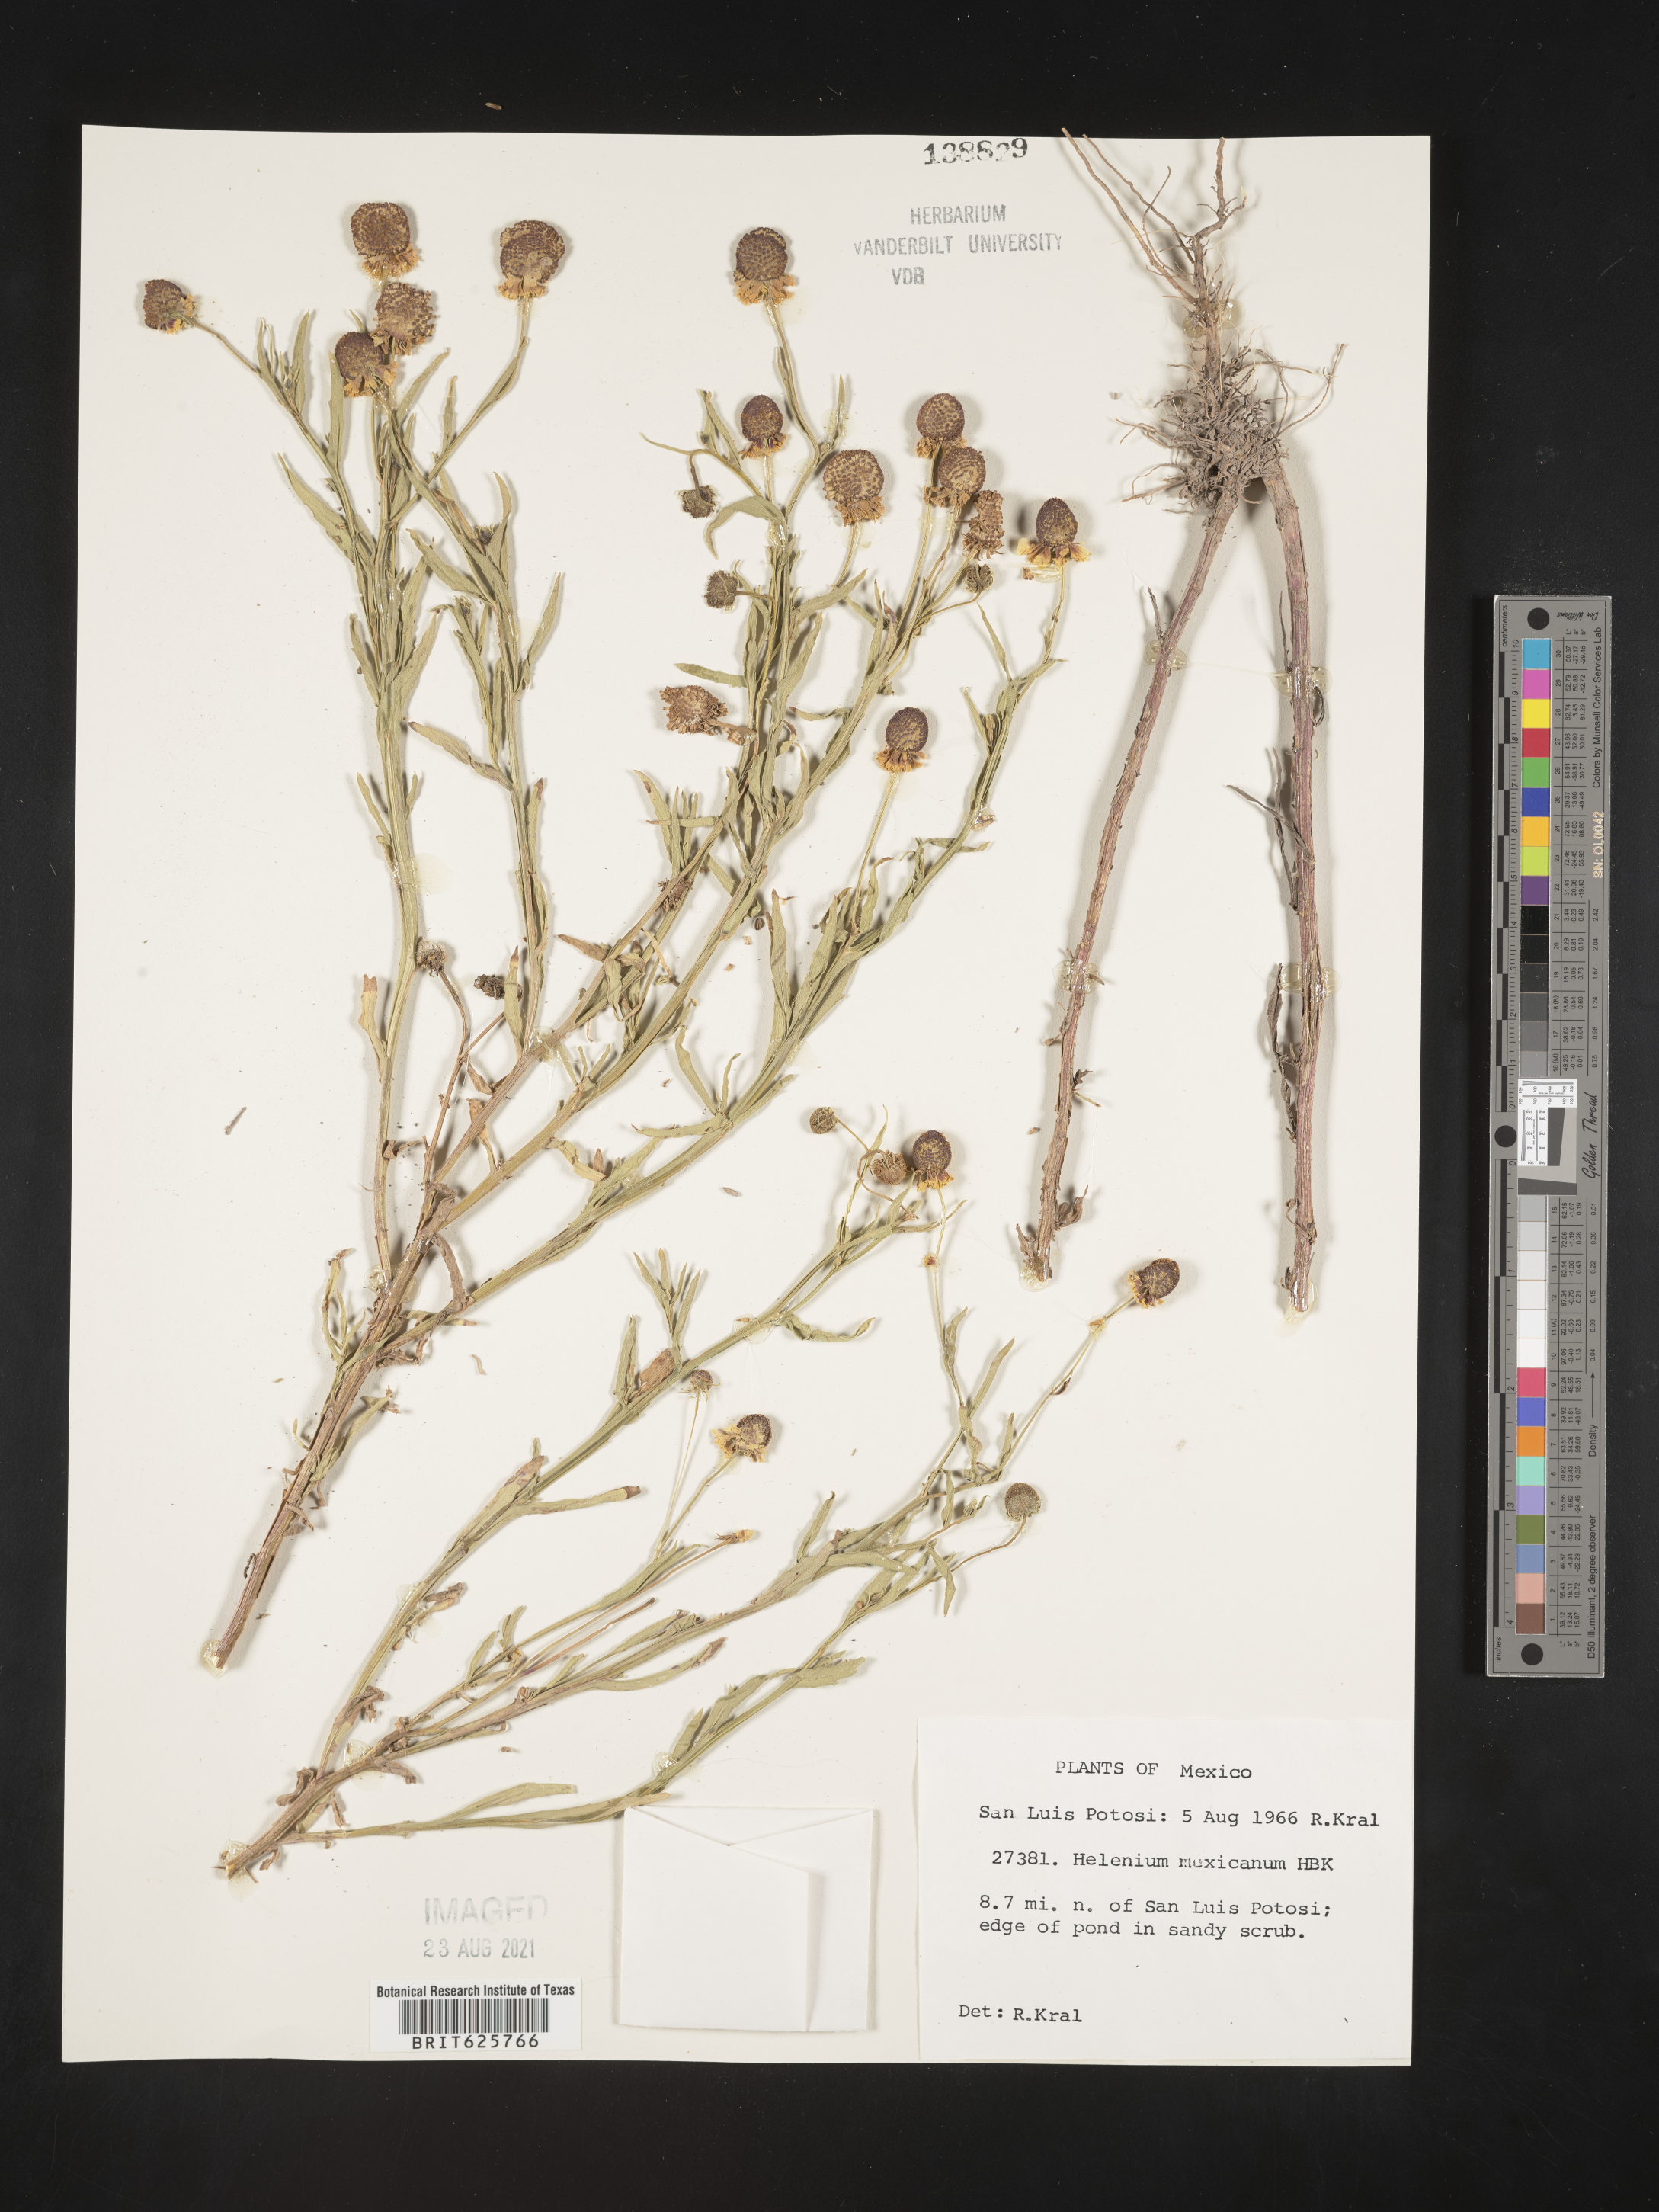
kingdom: Plantae
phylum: Tracheophyta
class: Magnoliopsida
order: Asterales
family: Asteraceae
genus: Helenium
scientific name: Helenium
